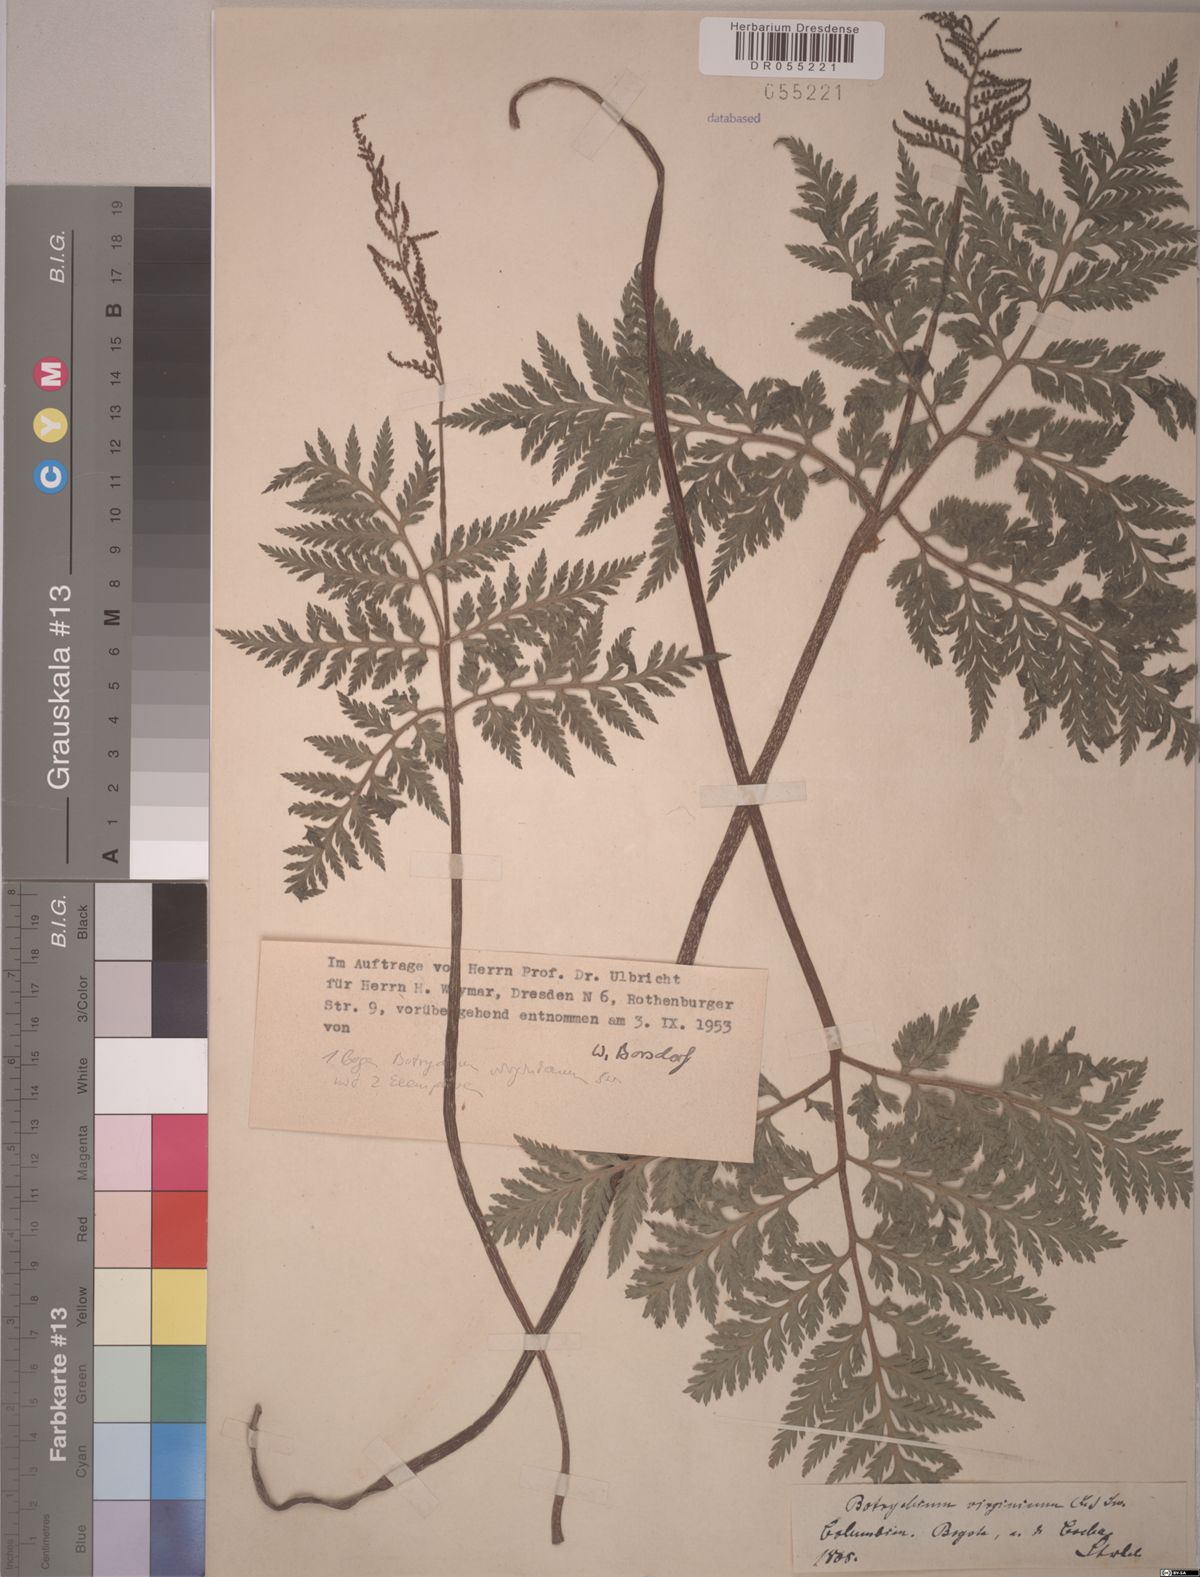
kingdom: Plantae
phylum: Tracheophyta
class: Polypodiopsida
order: Ophioglossales
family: Ophioglossaceae
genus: Botrypus
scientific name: Botrypus virginianus
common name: Common grapefern
